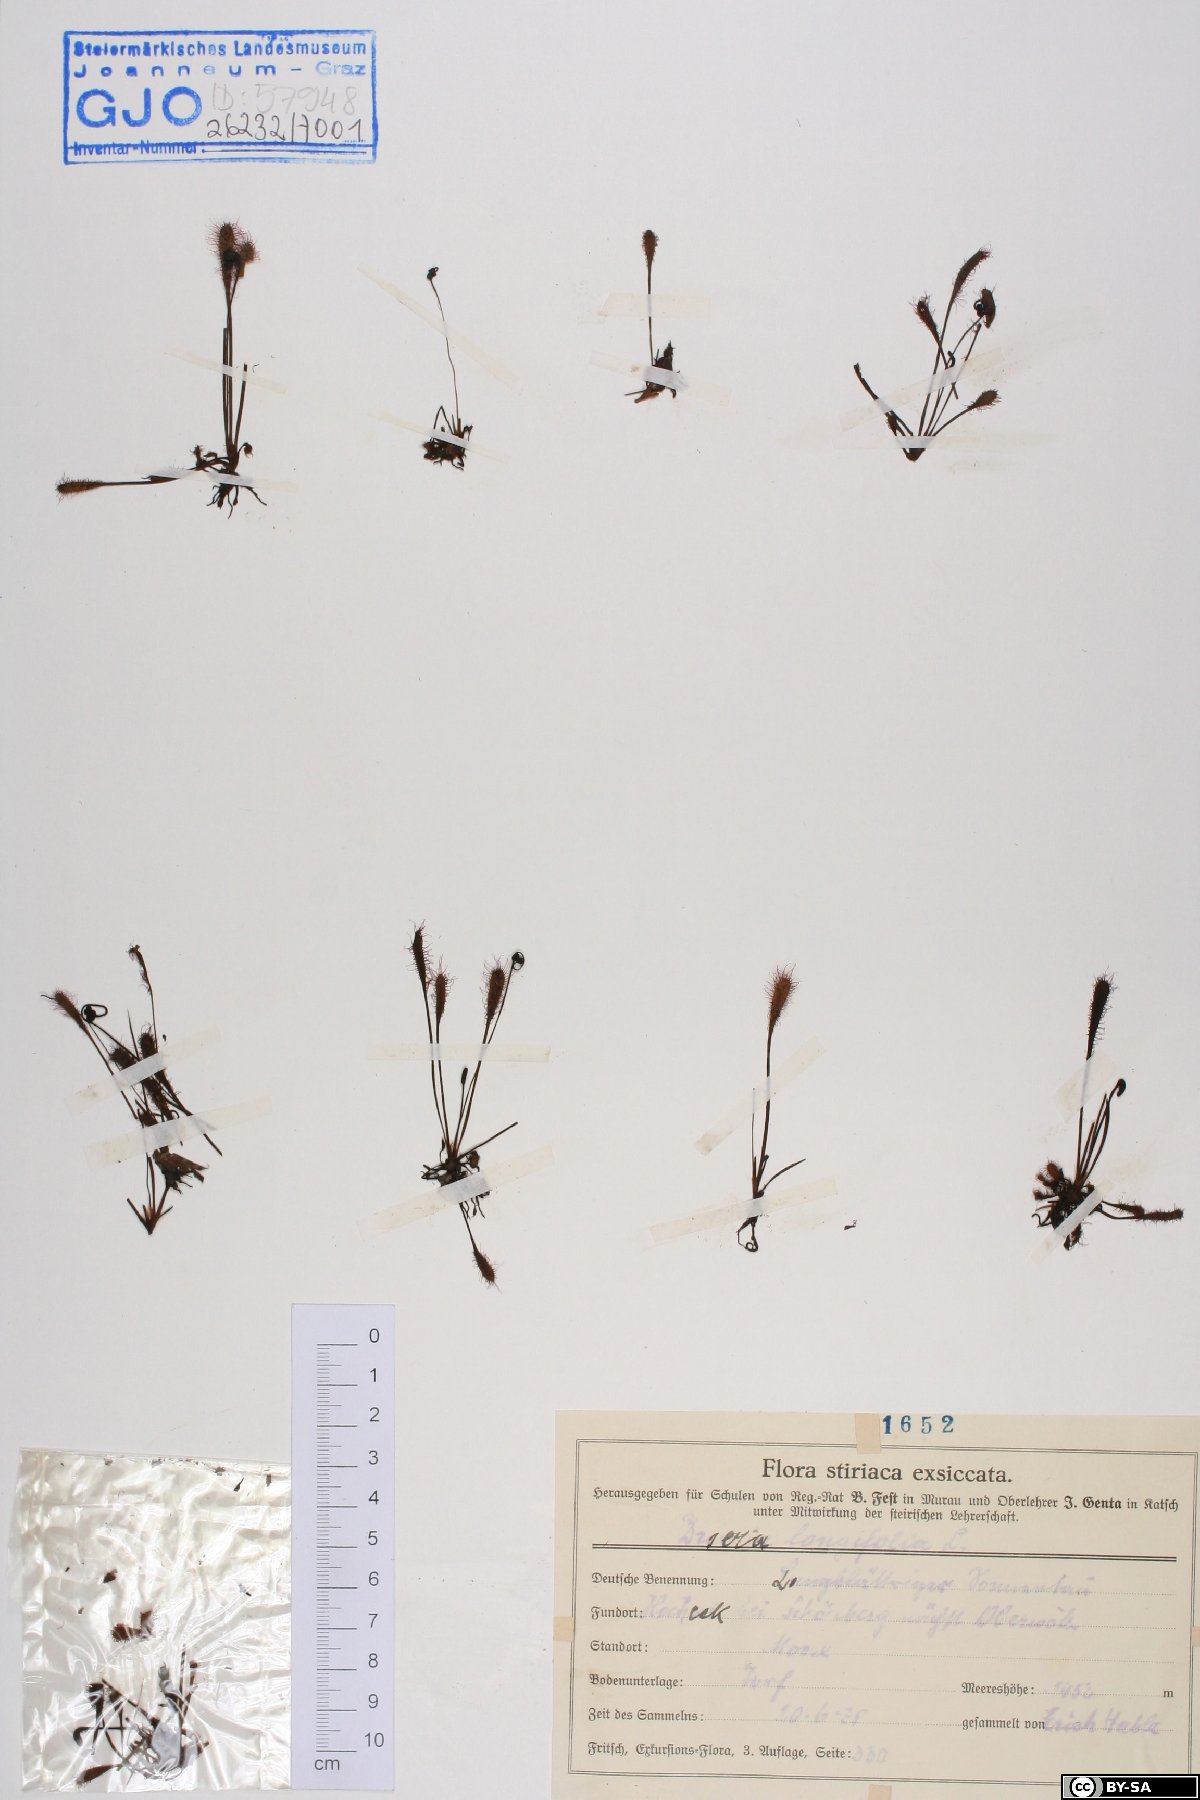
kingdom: Plantae
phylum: Tracheophyta
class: Magnoliopsida
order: Caryophyllales
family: Droseraceae
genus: Drosera
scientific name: Drosera anglica
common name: Great sundew
